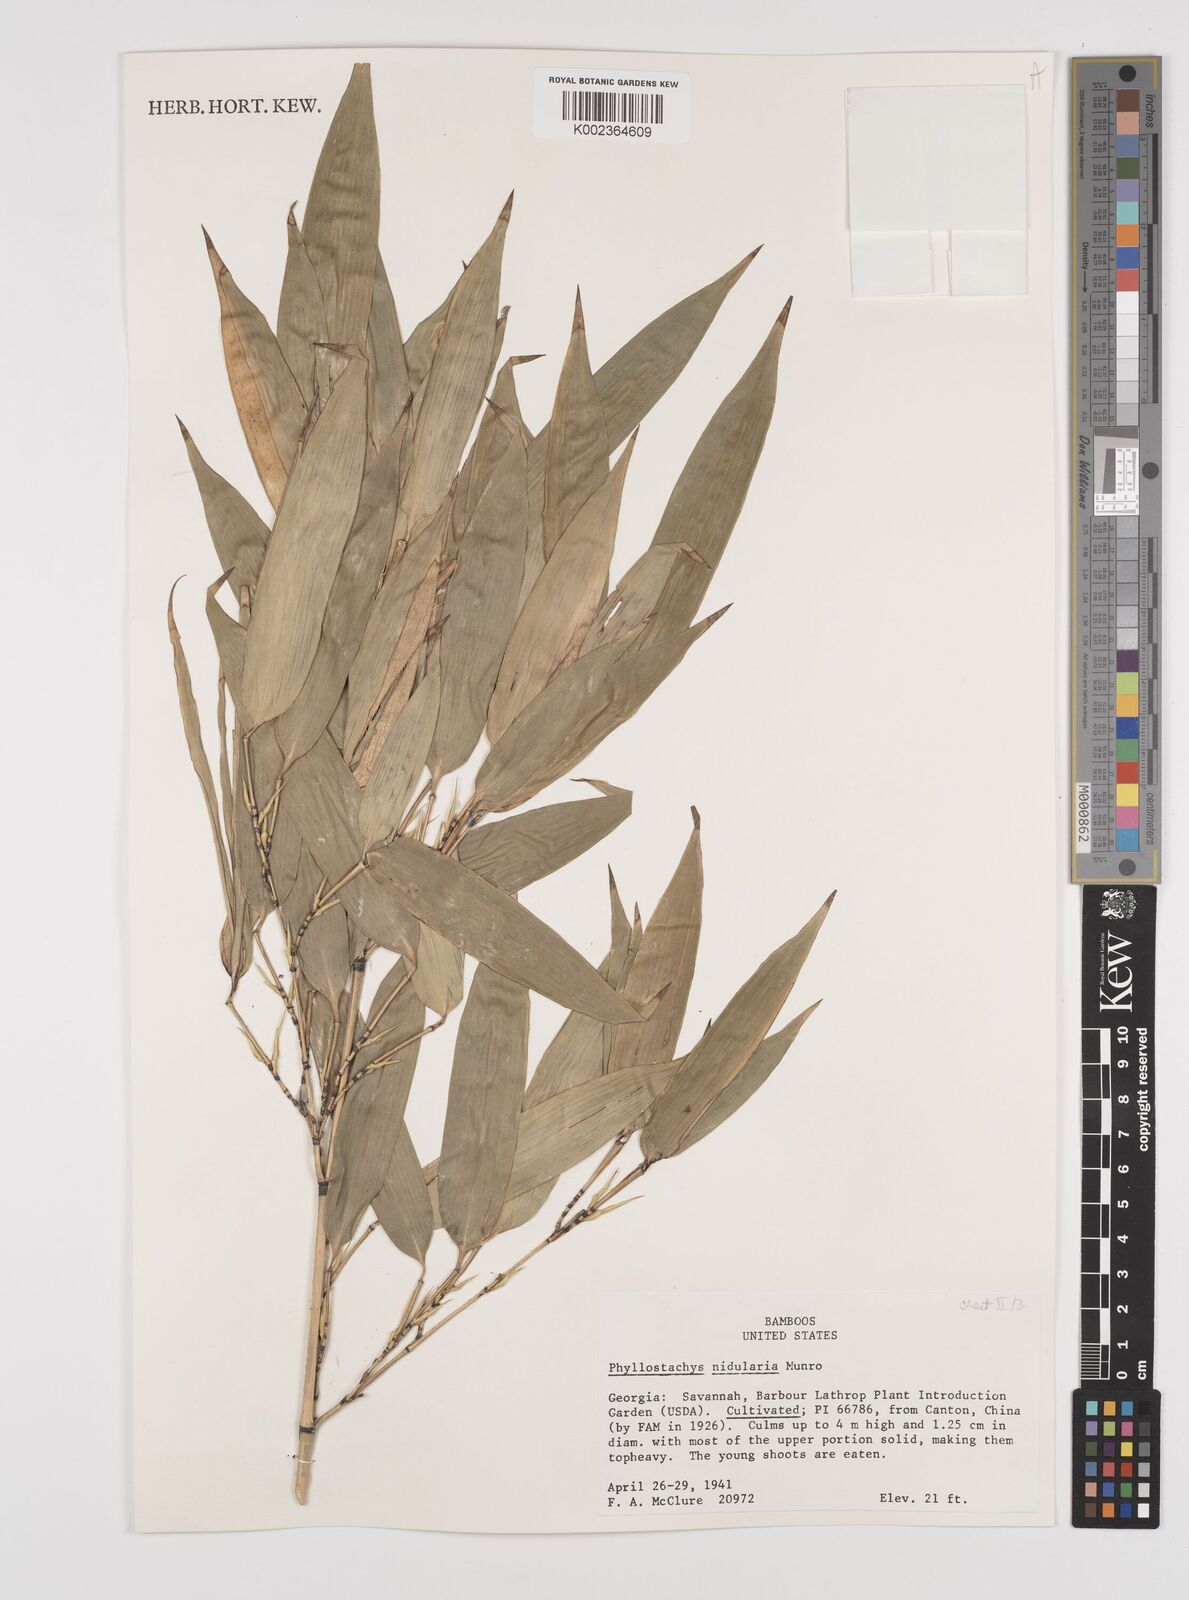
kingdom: Plantae
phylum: Tracheophyta
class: Liliopsida
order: Poales
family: Poaceae
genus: Phyllostachys
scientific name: Phyllostachys nidularia
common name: Broom bamboo
